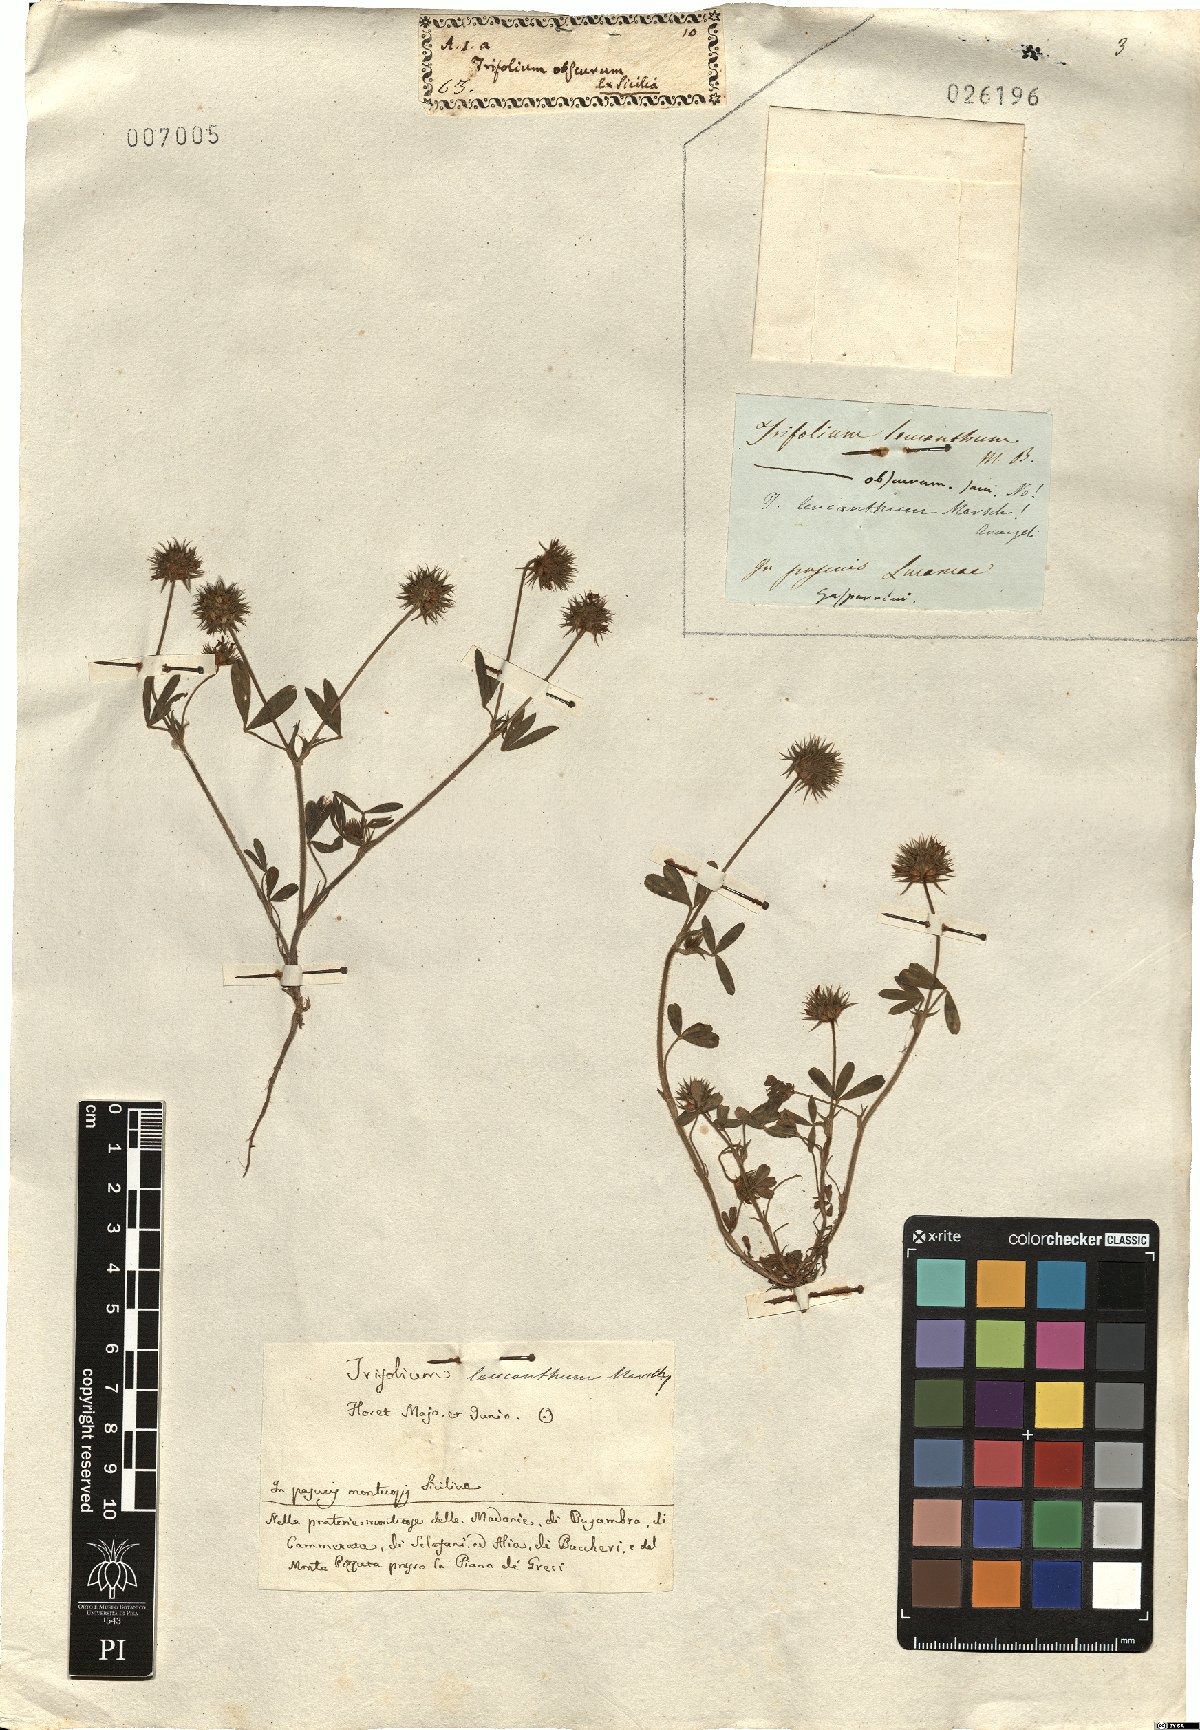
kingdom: Plantae
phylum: Tracheophyta
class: Magnoliopsida
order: Fabales
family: Fabaceae
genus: Trifolium
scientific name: Trifolium leucanthum
